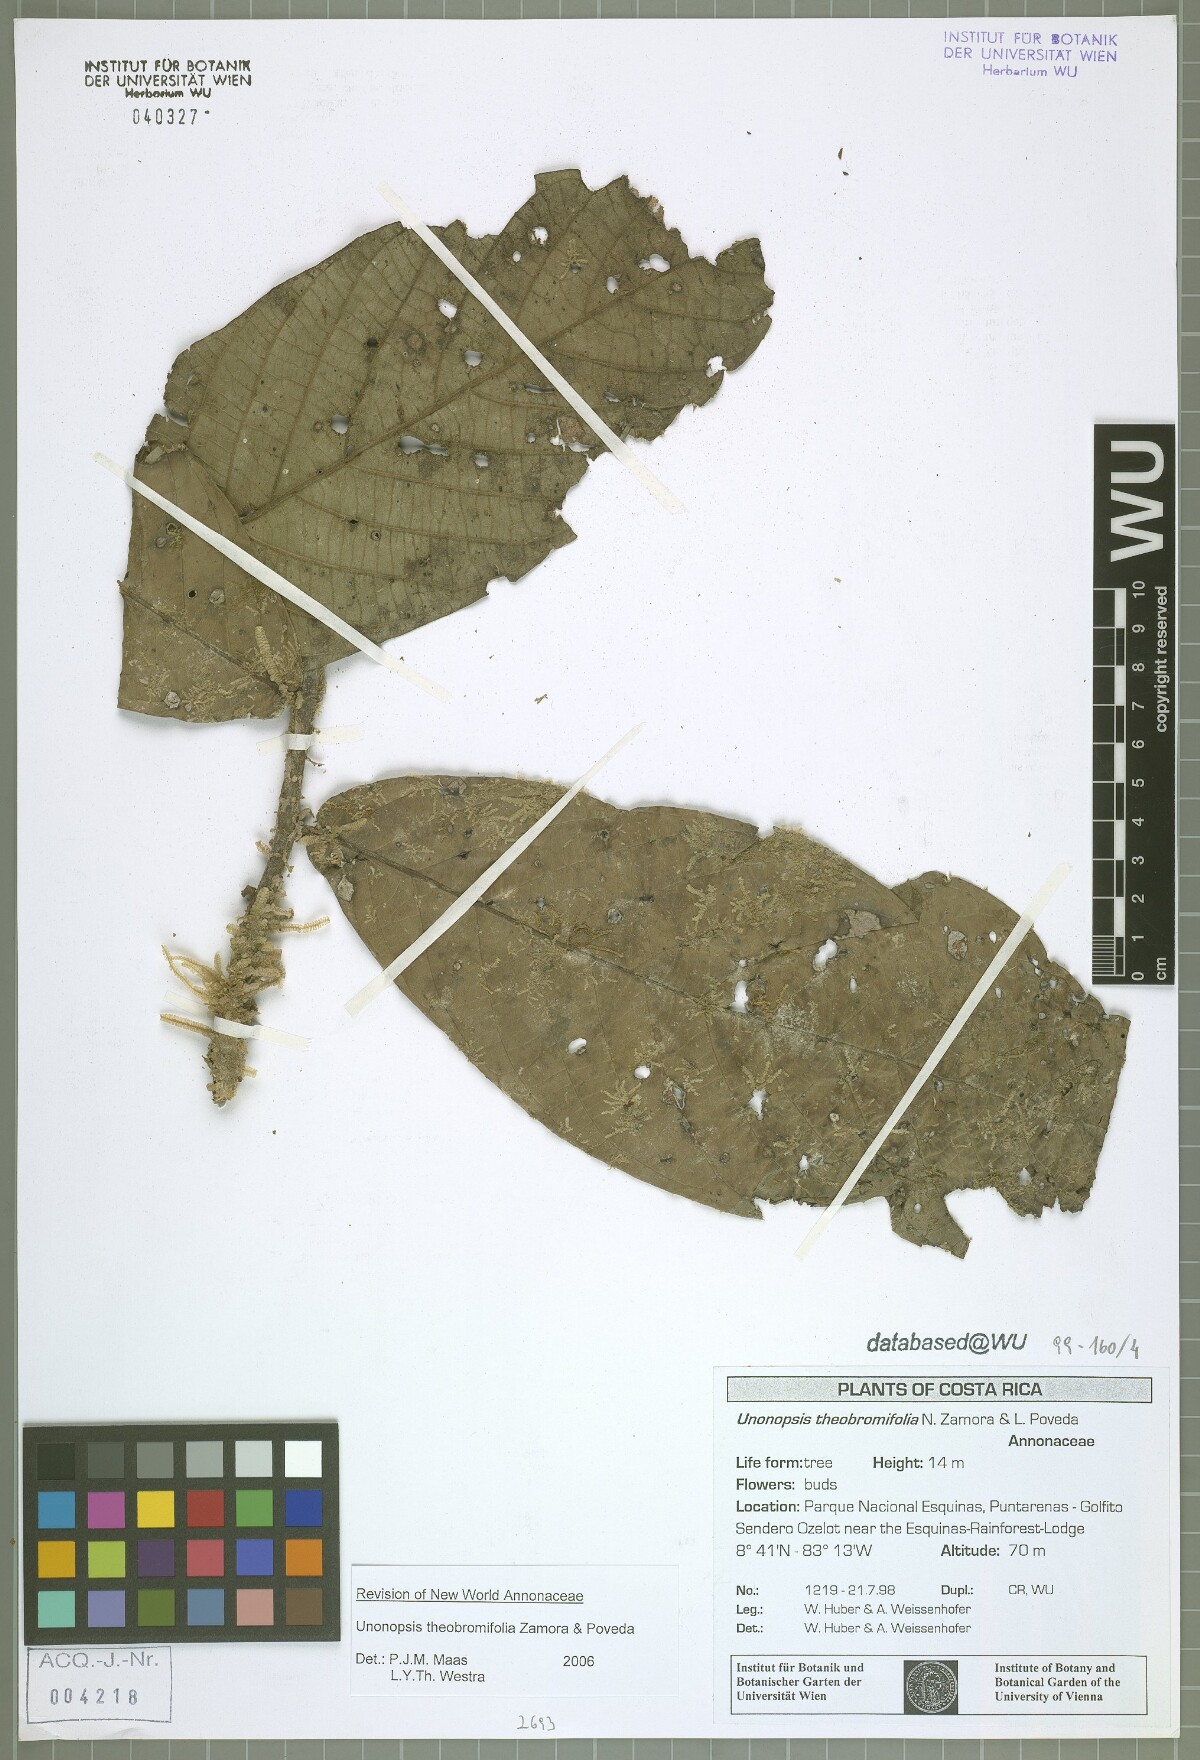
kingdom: Plantae
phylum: Tracheophyta
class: Magnoliopsida
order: Magnoliales
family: Annonaceae
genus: Unonopsis
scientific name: Unonopsis theobromifolia
